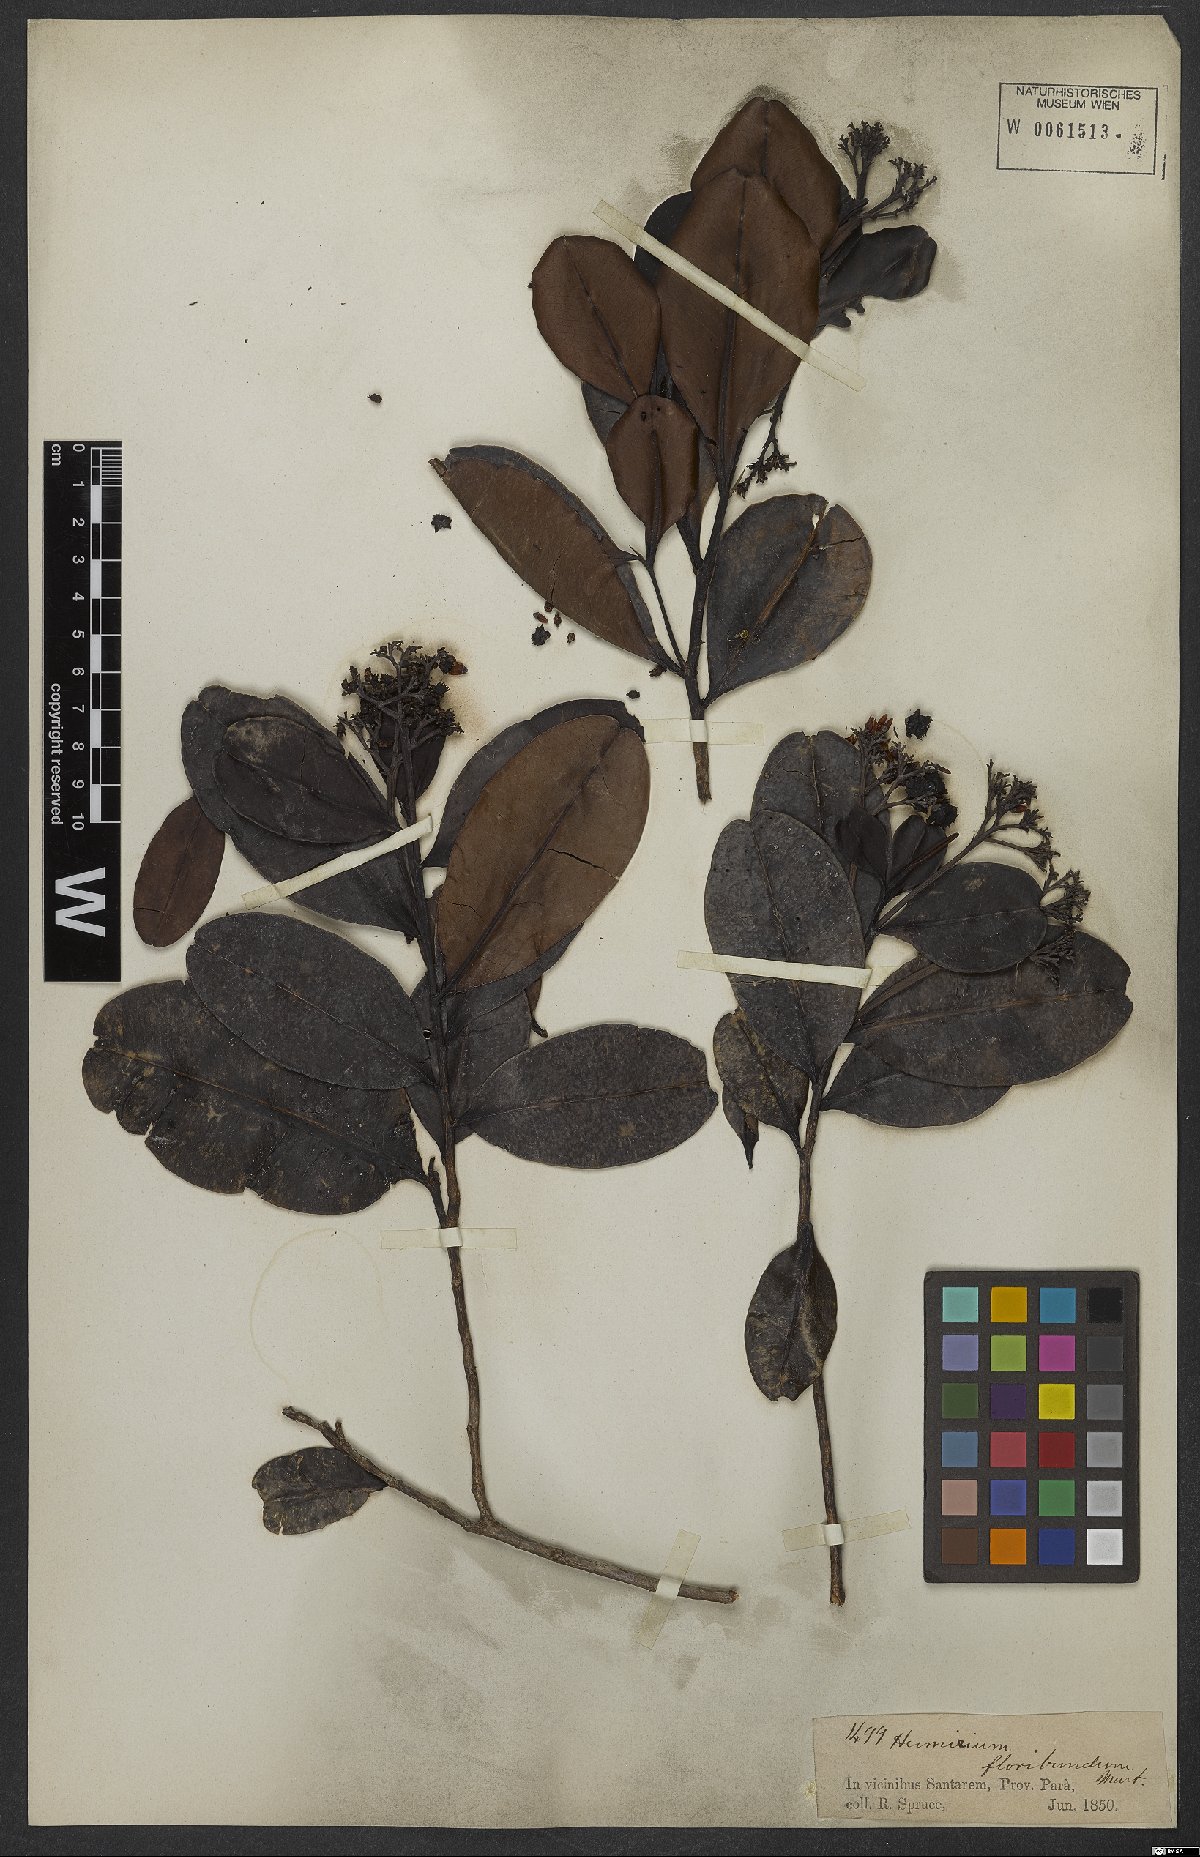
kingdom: Plantae
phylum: Tracheophyta
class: Magnoliopsida
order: Malpighiales
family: Humiriaceae
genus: Humiria
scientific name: Humiria balsamifera
